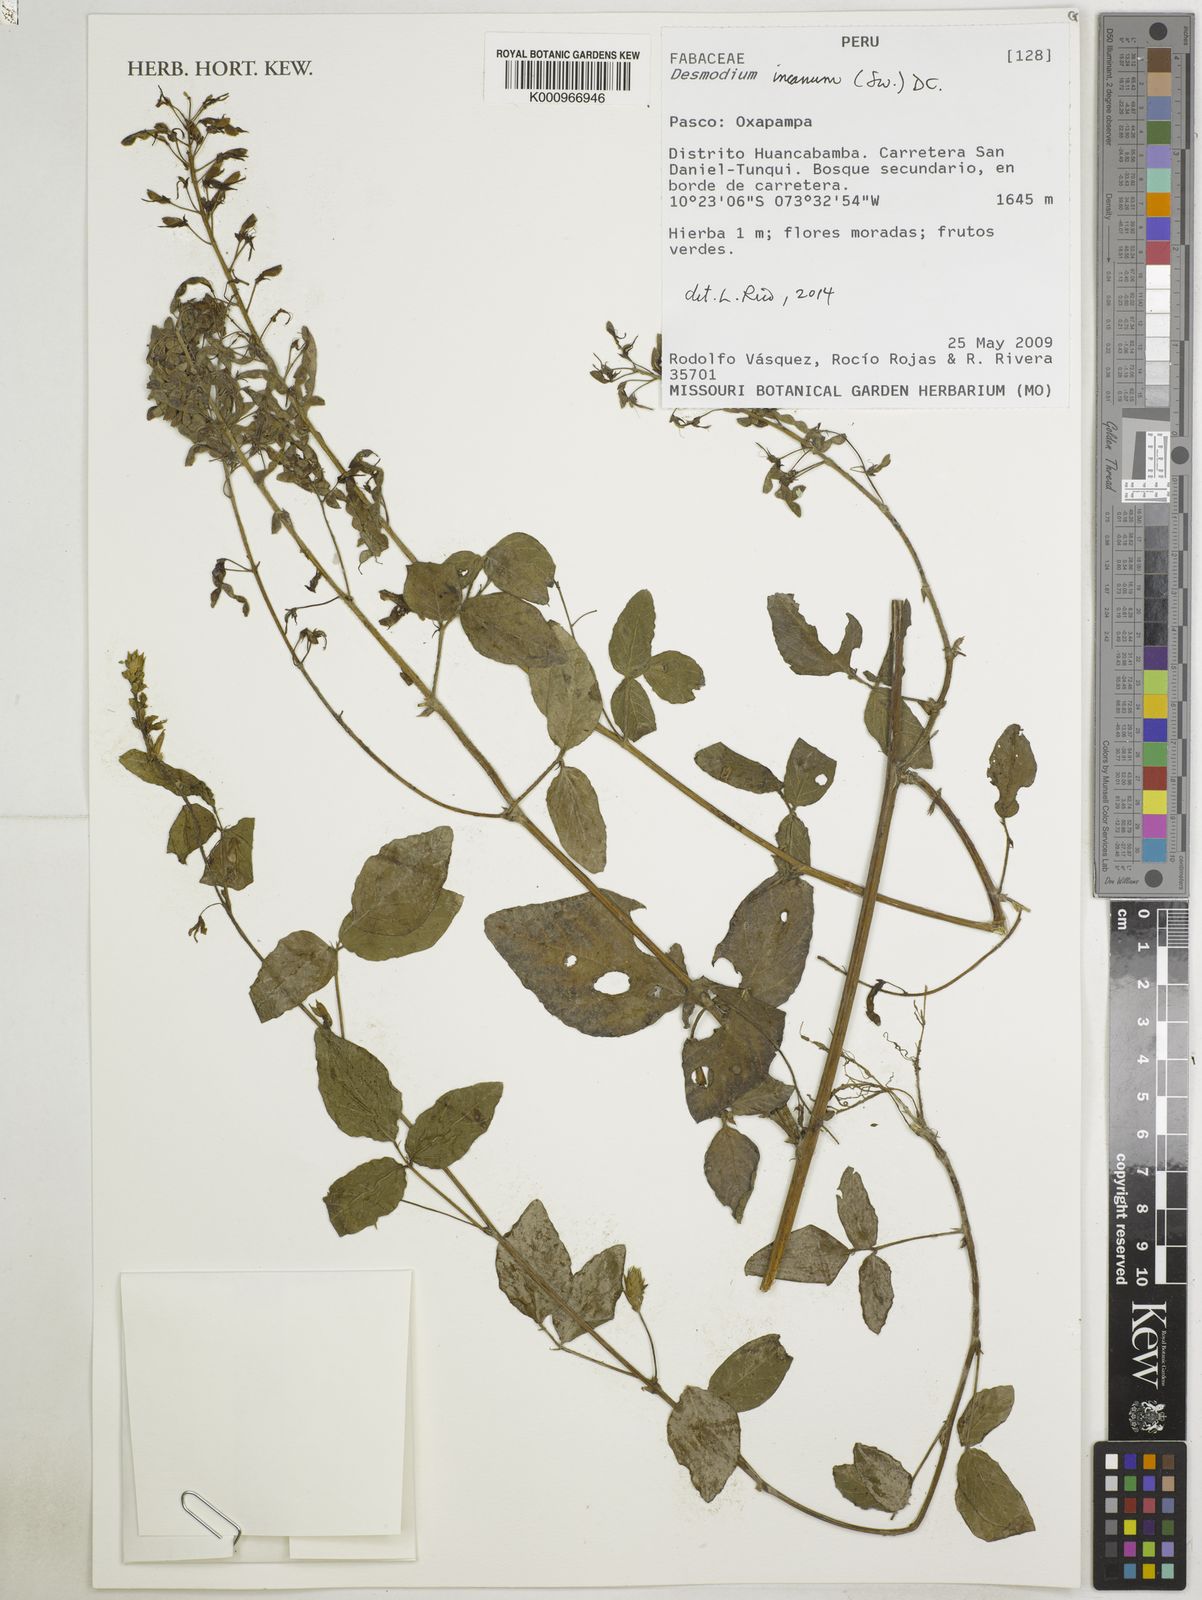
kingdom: Plantae
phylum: Tracheophyta
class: Magnoliopsida
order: Fabales
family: Fabaceae
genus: Desmodium
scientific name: Desmodium incanum
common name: Tickclover
